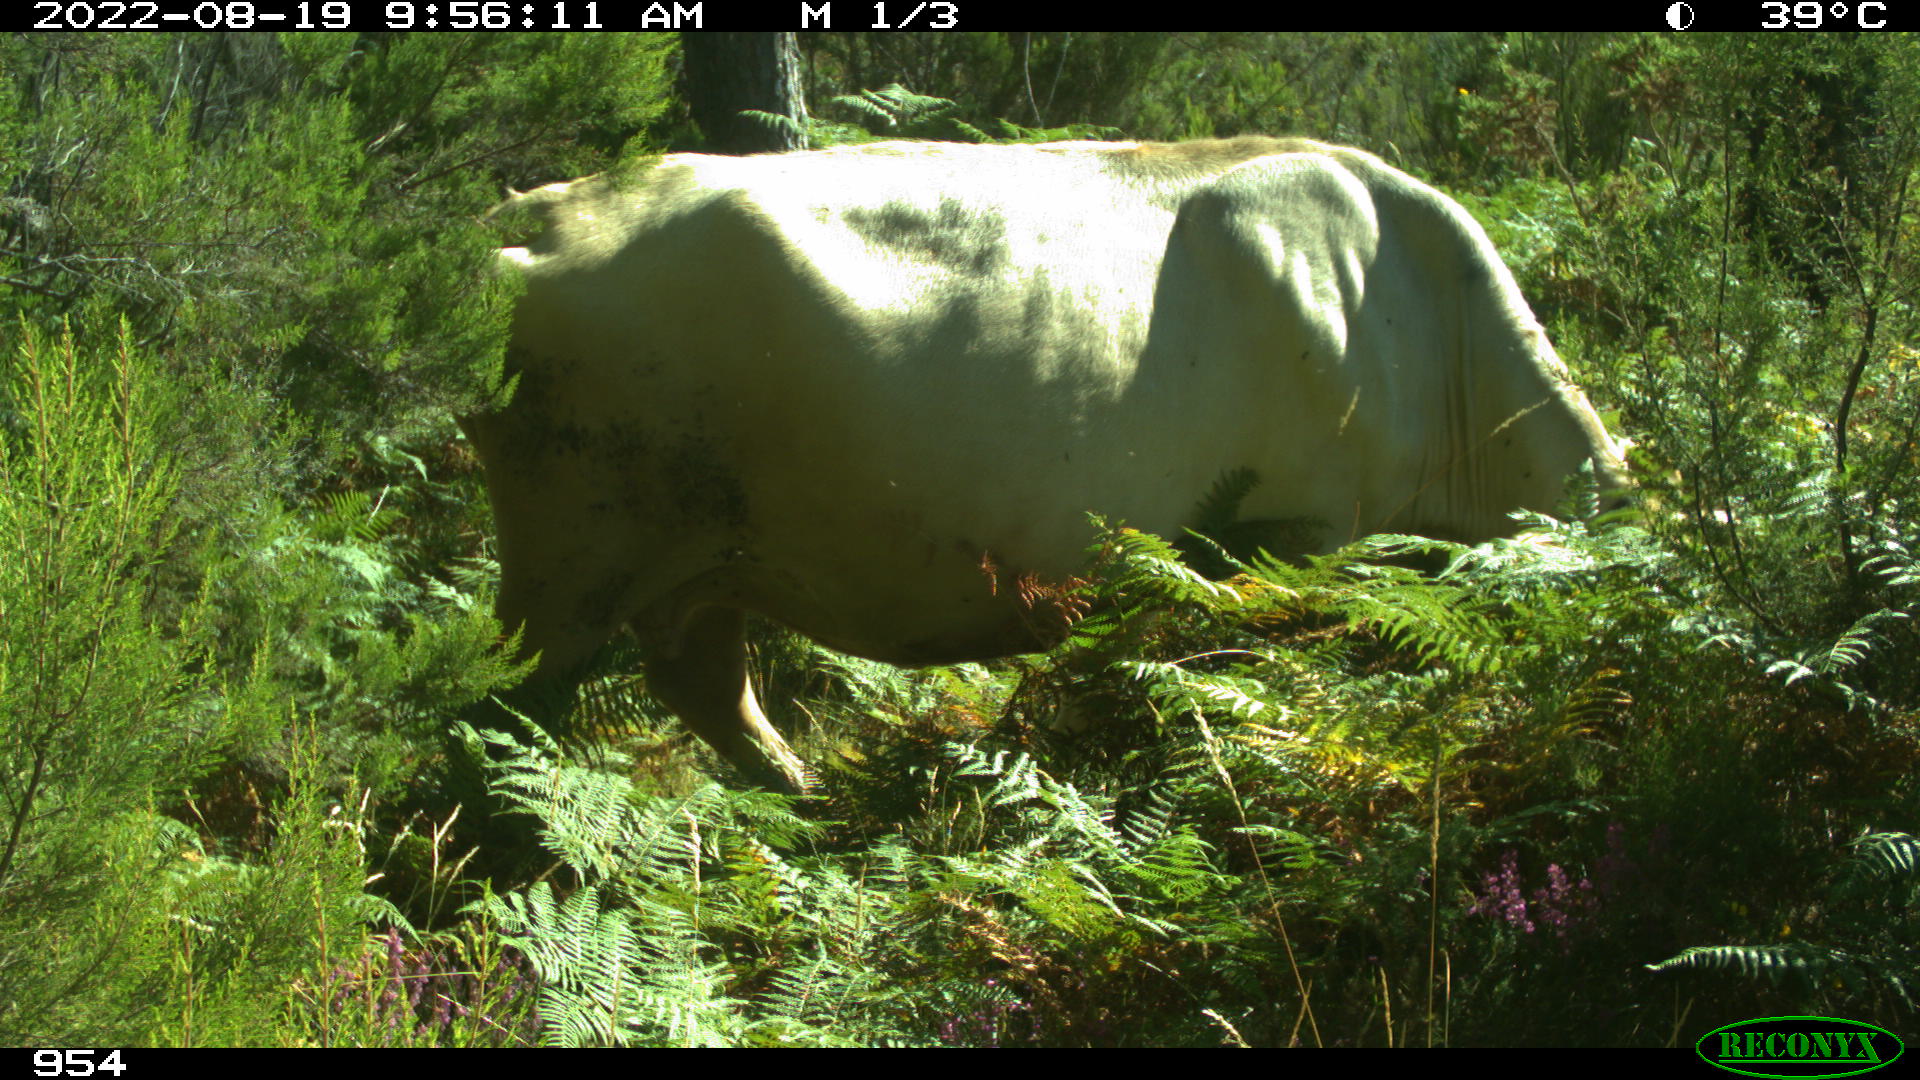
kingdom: Animalia
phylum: Chordata
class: Mammalia
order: Artiodactyla
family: Bovidae
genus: Bos
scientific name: Bos taurus
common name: Domesticated cattle
